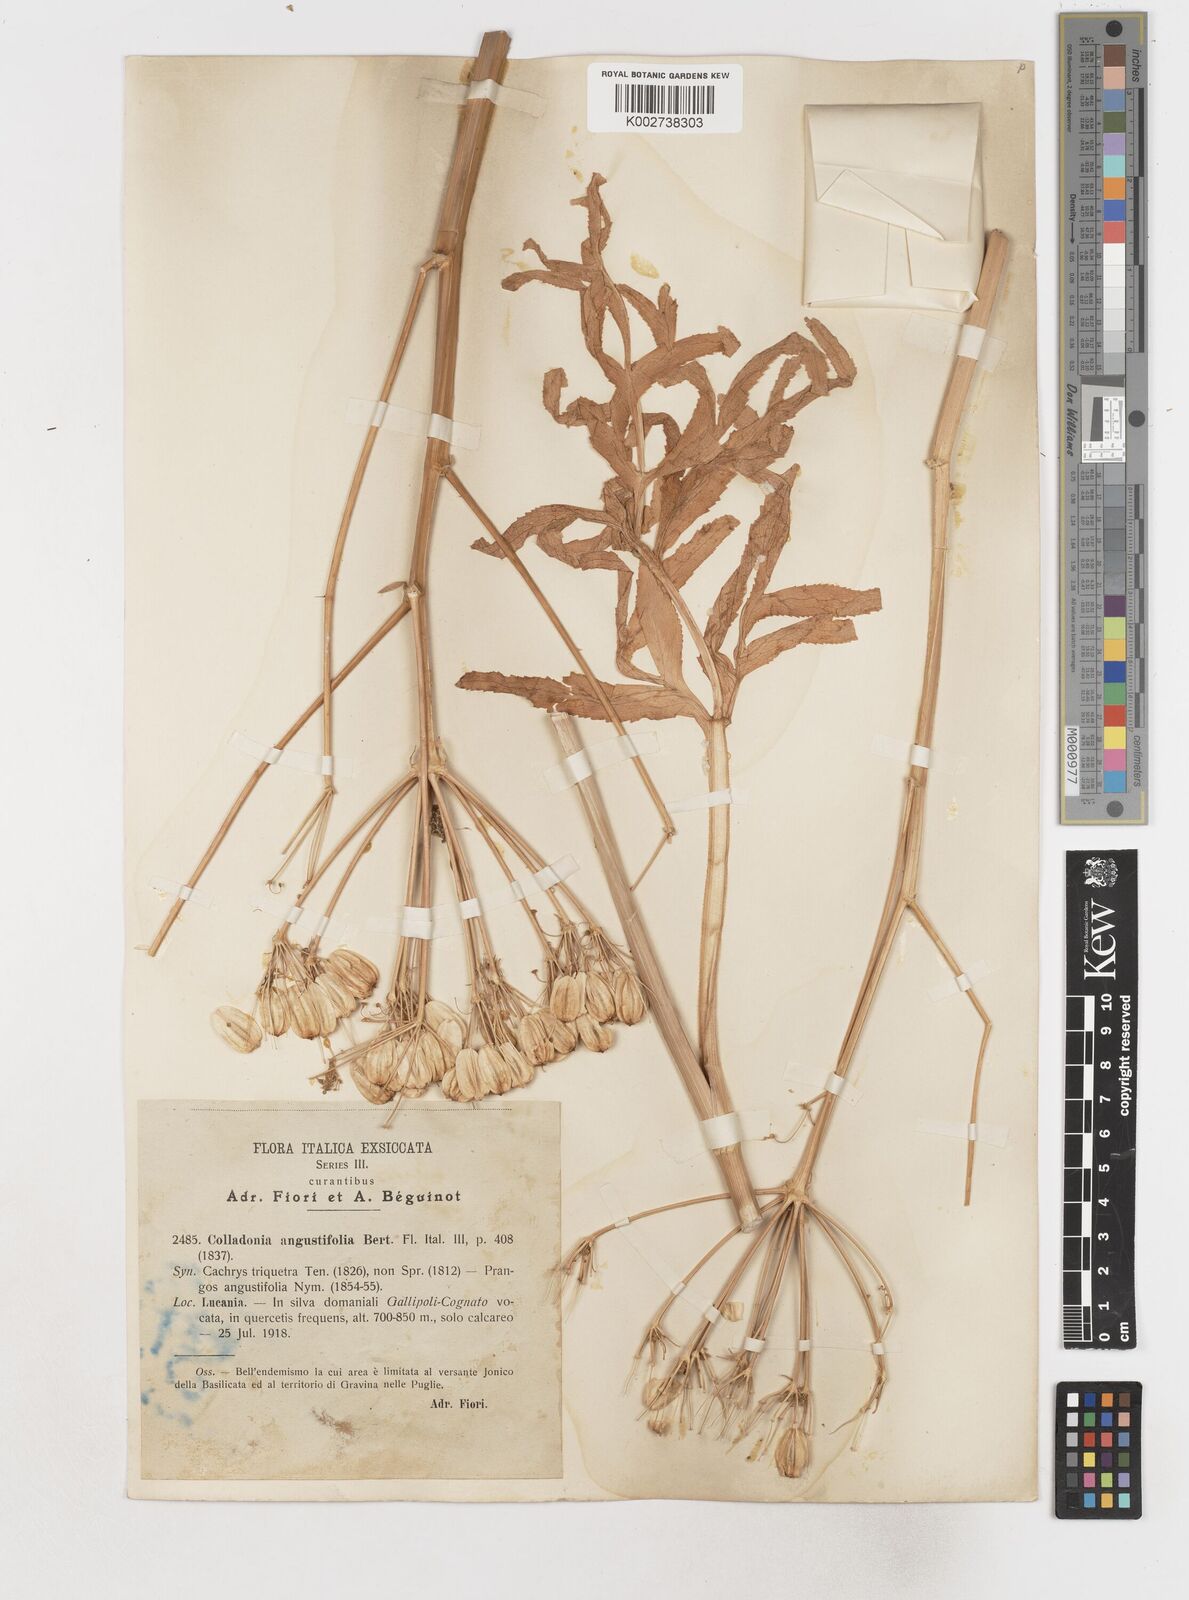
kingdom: Plantae
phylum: Tracheophyta
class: Magnoliopsida
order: Apiales
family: Apiaceae
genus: Heptaptera
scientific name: Heptaptera angustifolia
